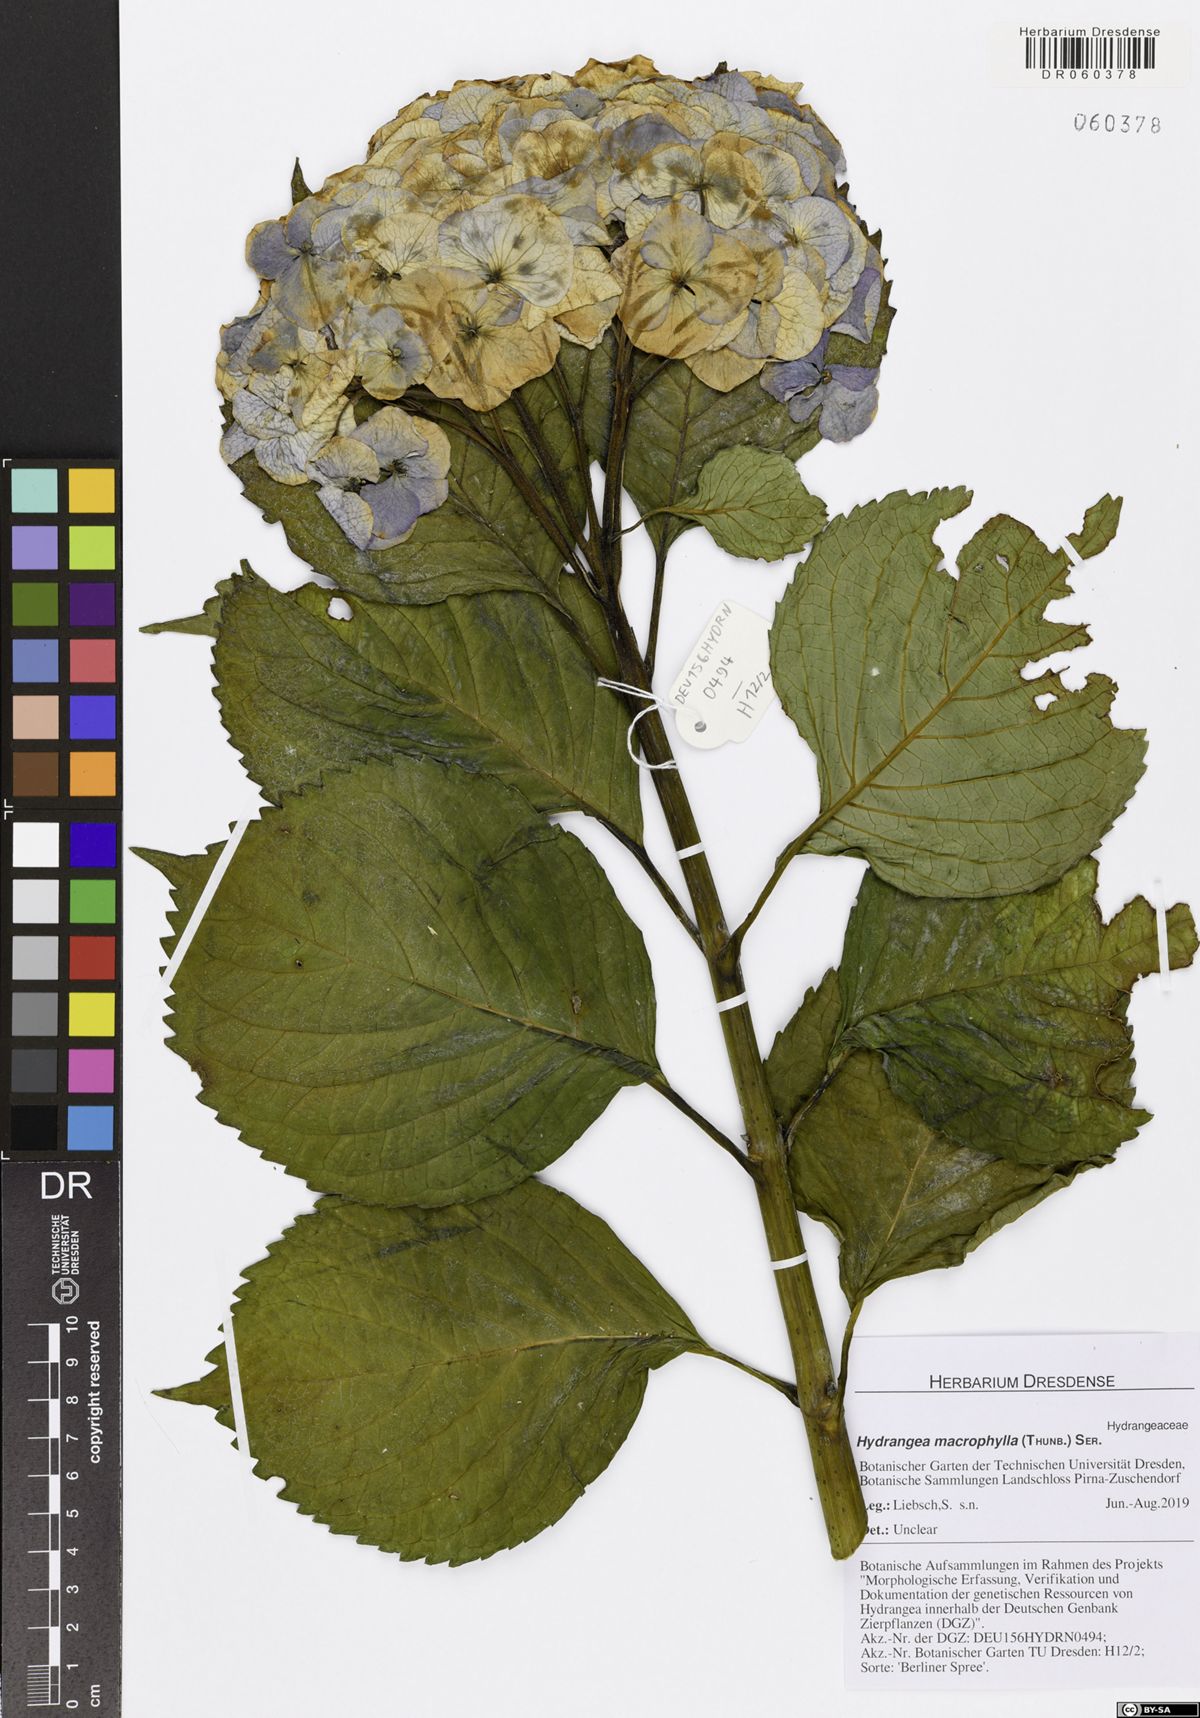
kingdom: Plantae
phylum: Tracheophyta
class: Magnoliopsida
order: Cornales
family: Hydrangeaceae
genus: Hydrangea
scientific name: Hydrangea macrophylla
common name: Hydrangea
